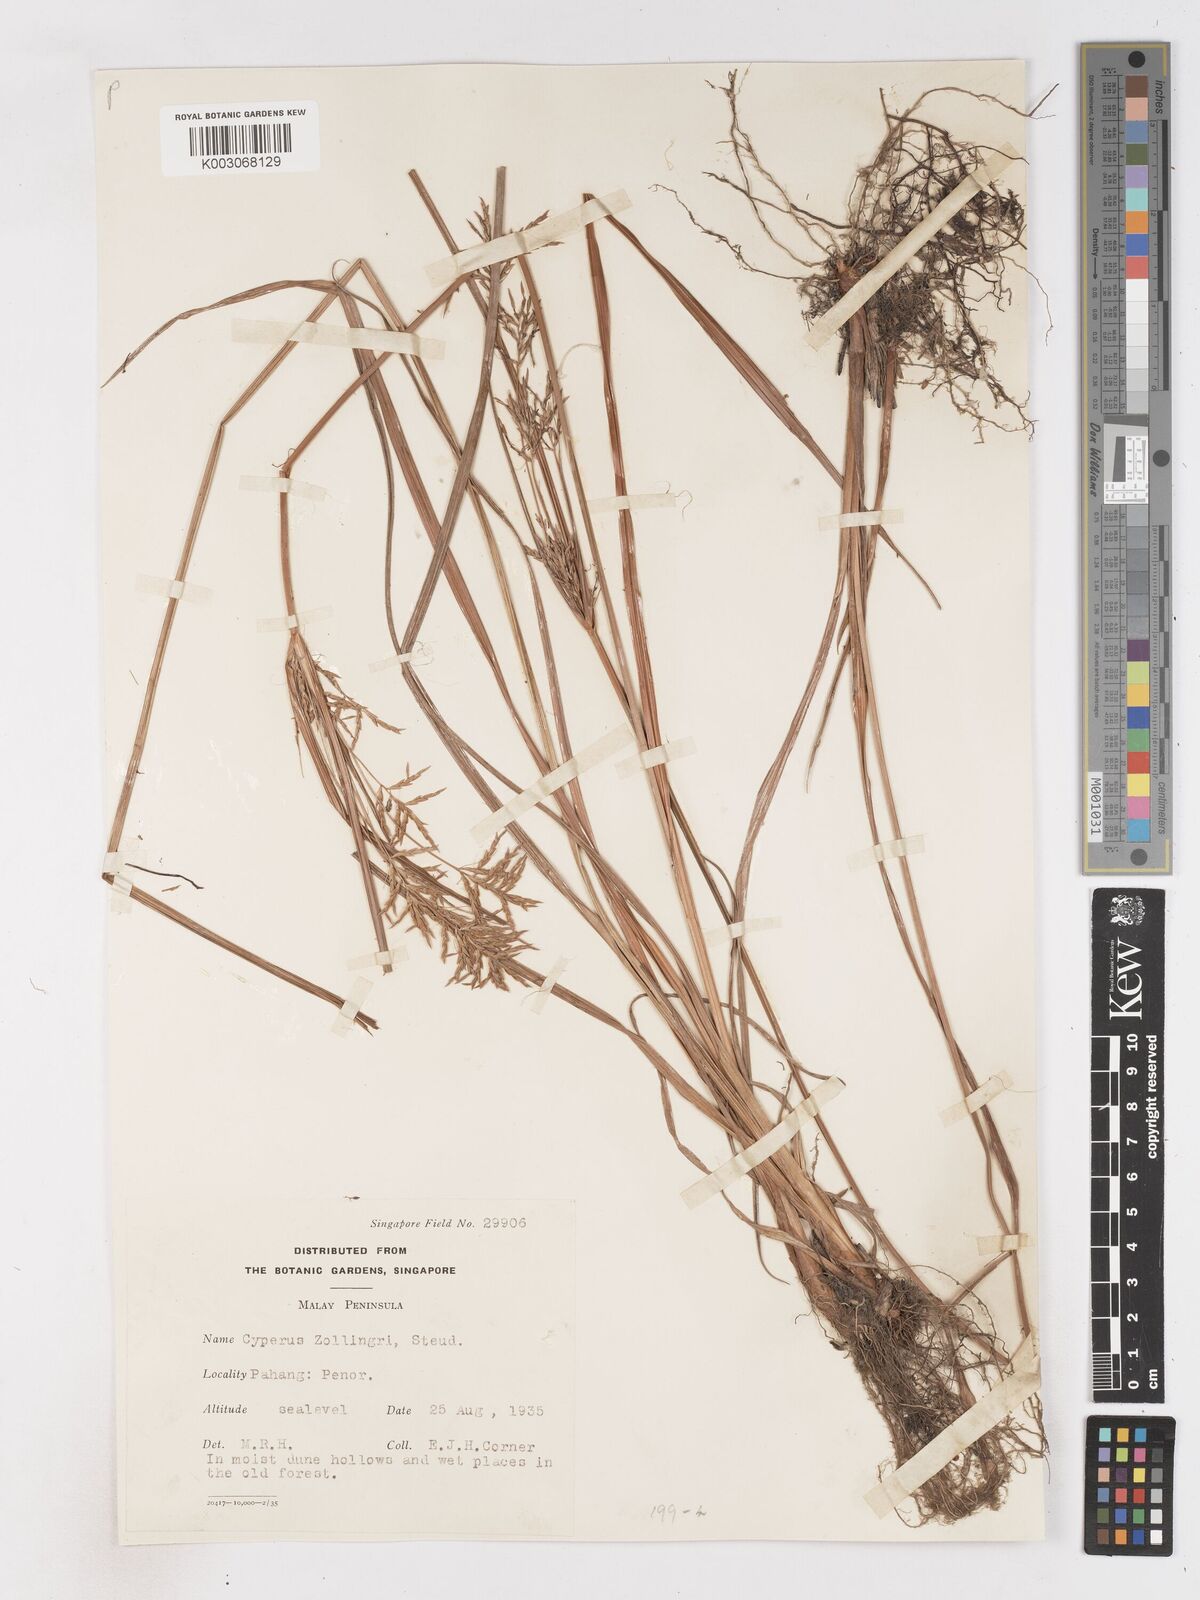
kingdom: Plantae
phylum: Tracheophyta
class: Liliopsida
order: Poales
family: Cyperaceae
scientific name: Cyperaceae
